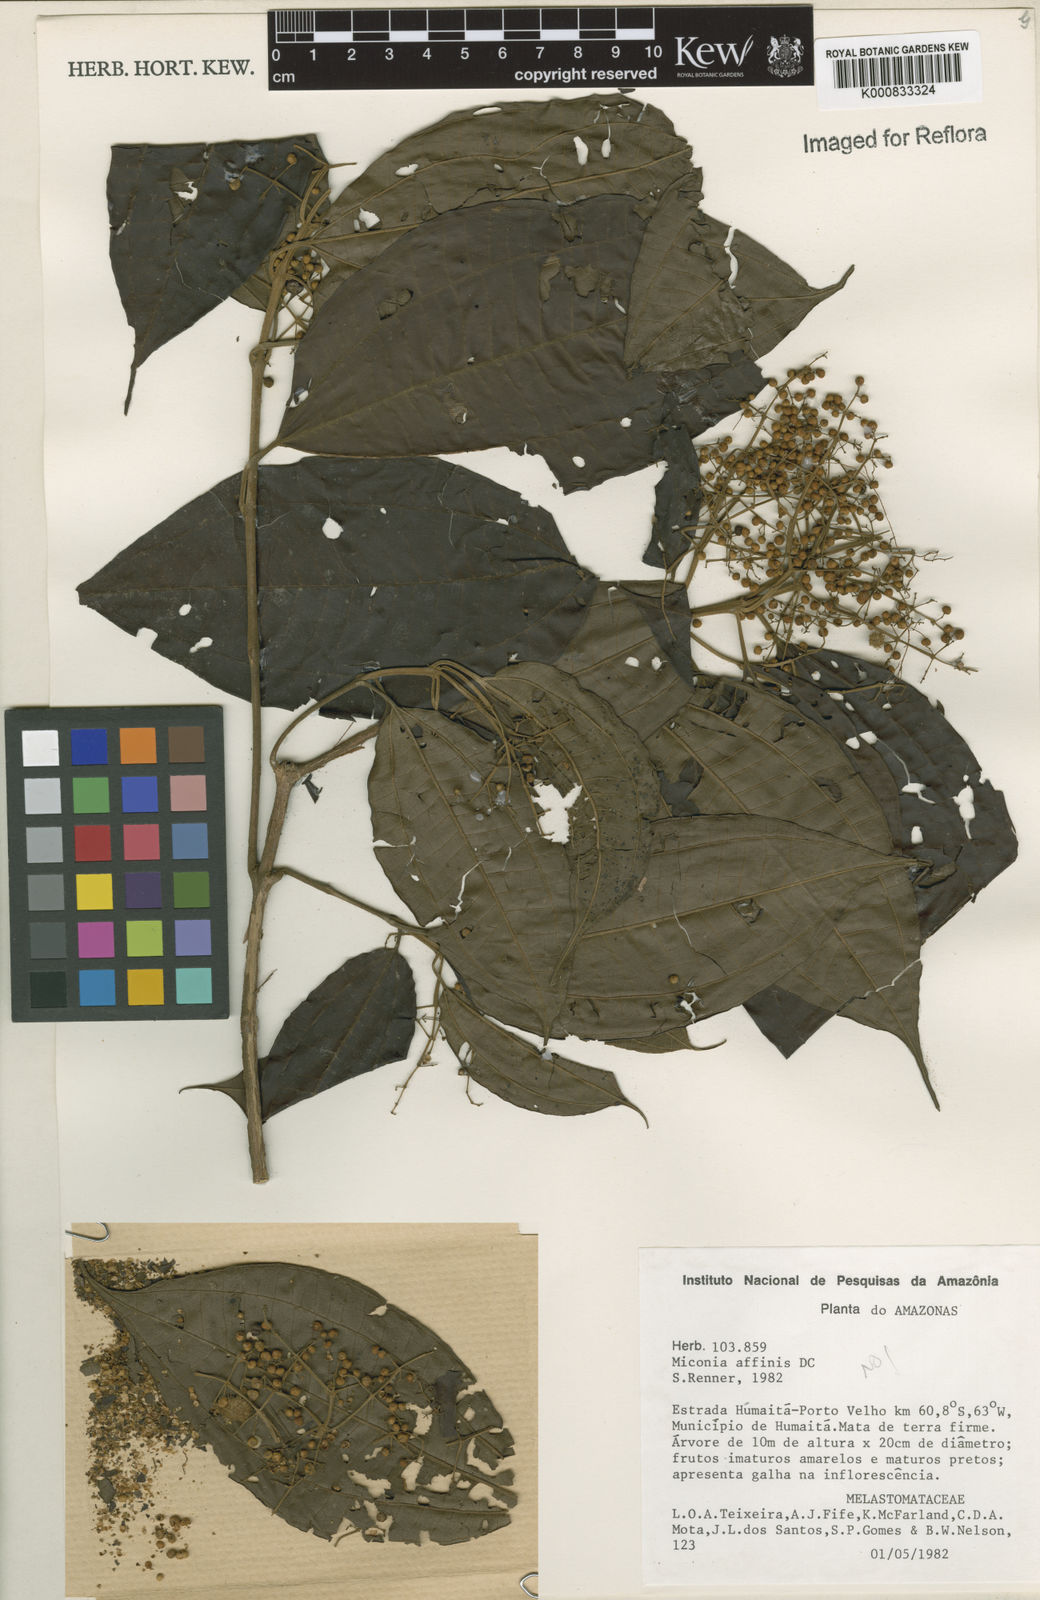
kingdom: Plantae
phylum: Tracheophyta
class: Magnoliopsida
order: Myrtales
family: Melastomataceae
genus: Miconia
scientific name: Miconia affinis
